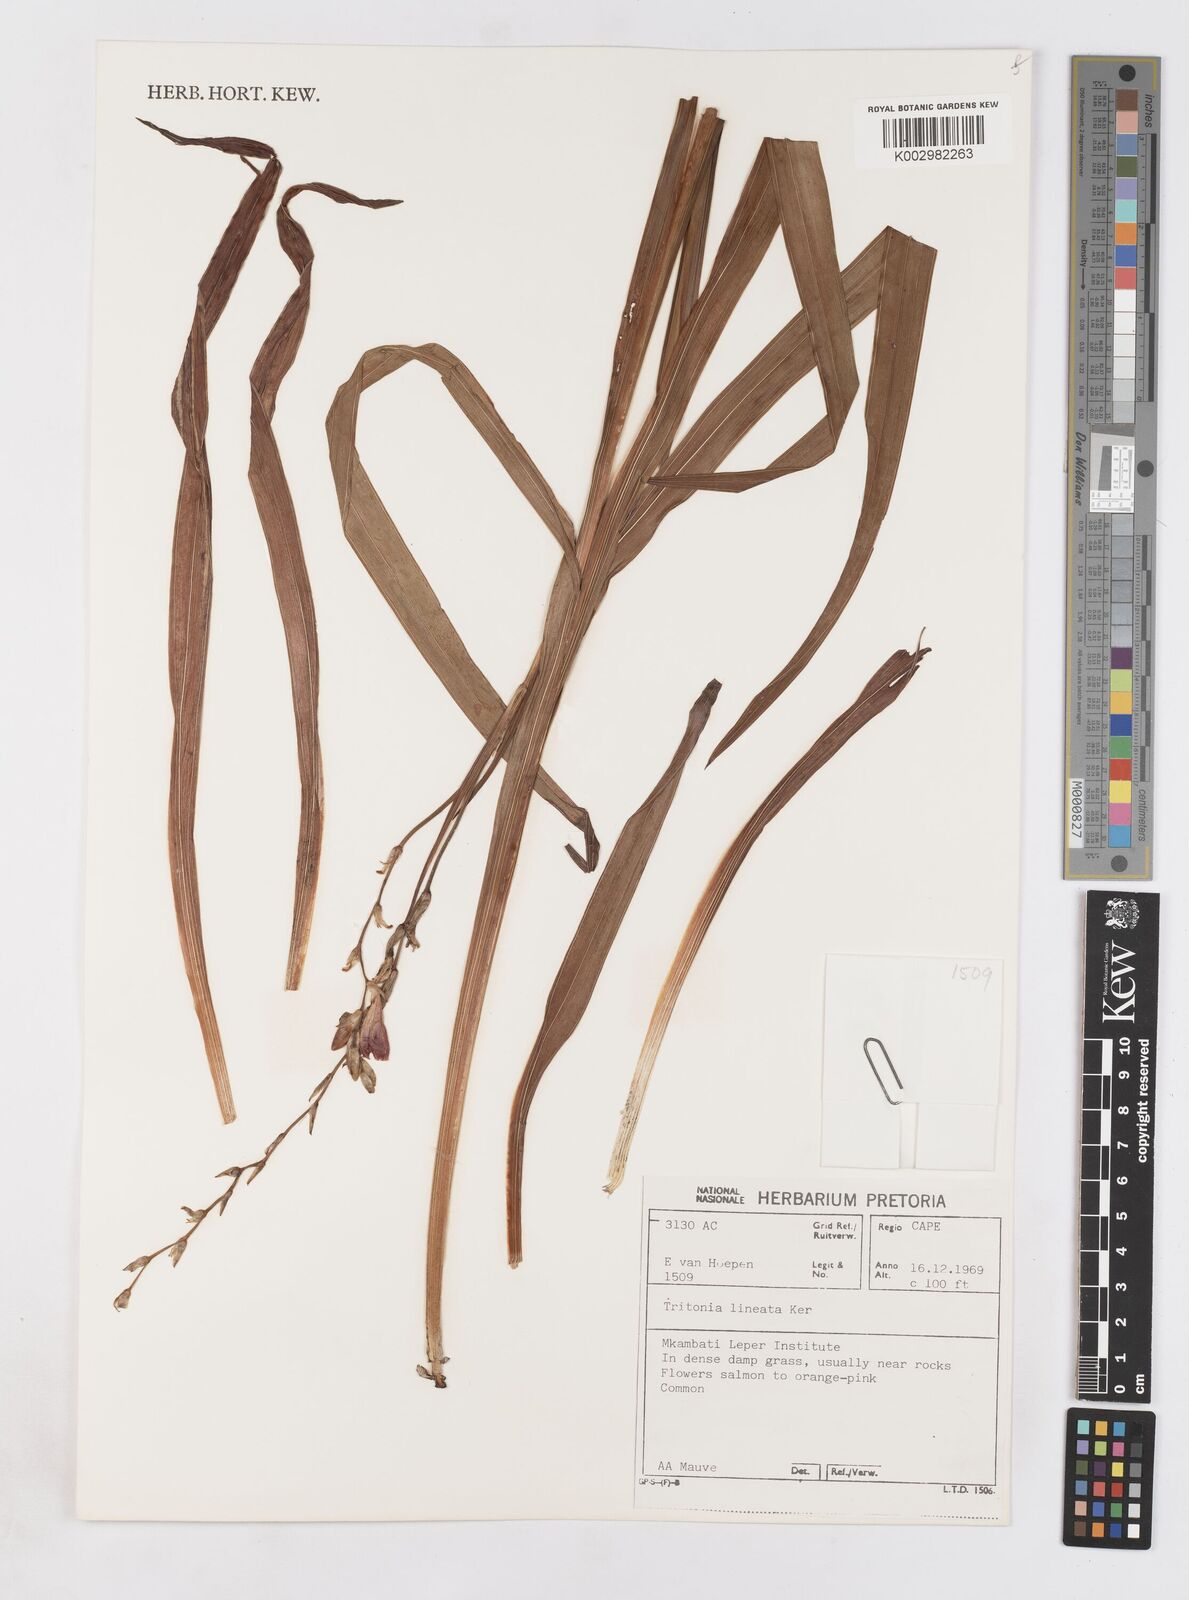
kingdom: Plantae
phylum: Tracheophyta
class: Liliopsida
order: Asparagales
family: Iridaceae
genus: Tritonia
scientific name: Tritonia gladiolaris
